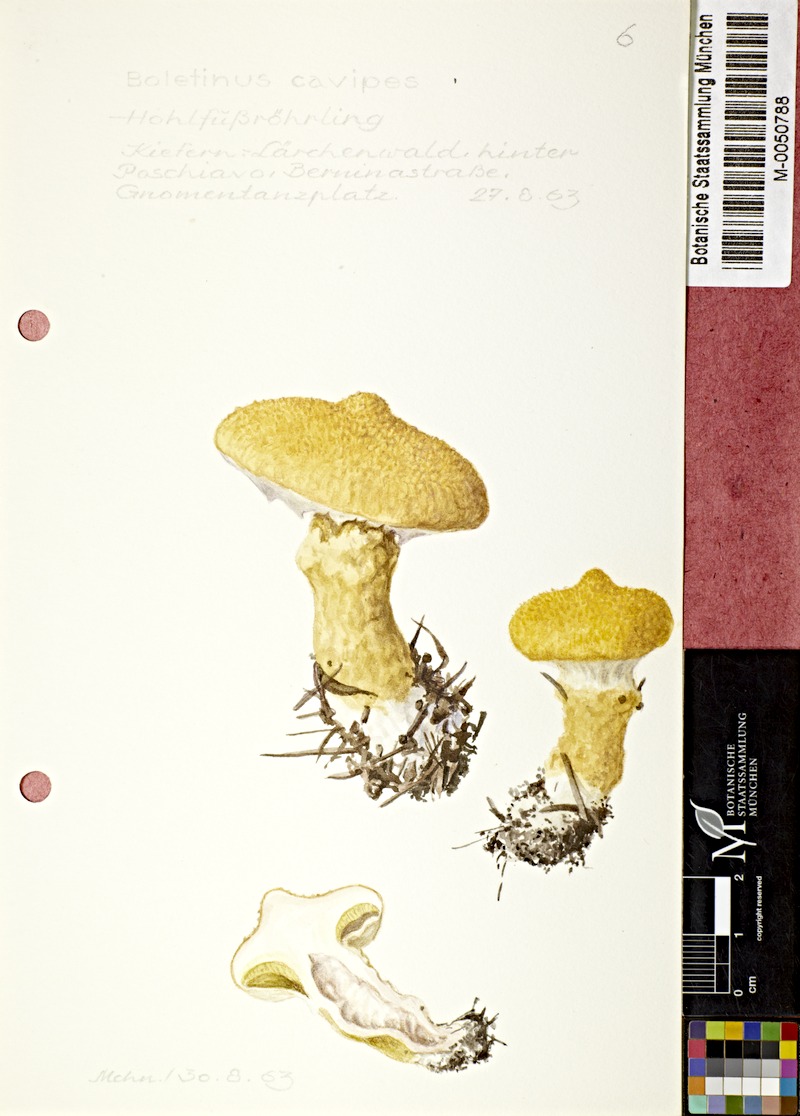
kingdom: Fungi
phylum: Basidiomycota
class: Agaricomycetes
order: Boletales
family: Suillaceae
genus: Suillus
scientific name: Suillus cavipes
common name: Hollow bolete
